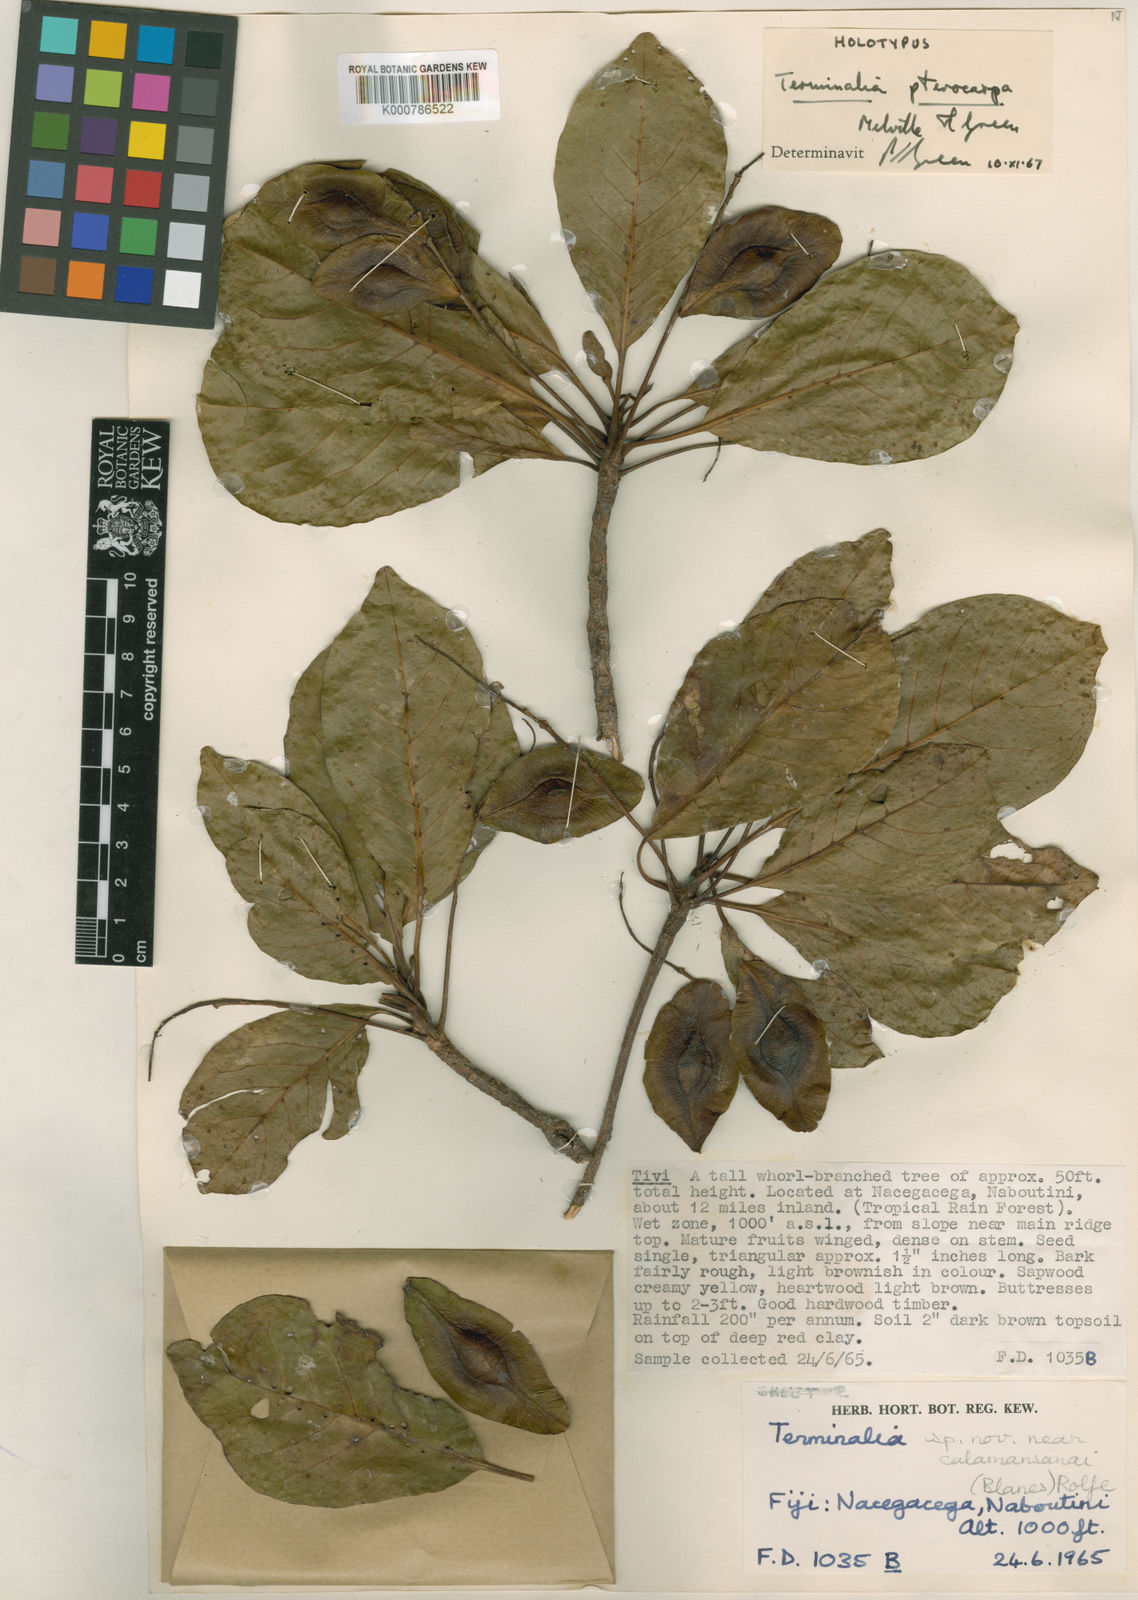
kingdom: Plantae
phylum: Tracheophyta
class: Magnoliopsida
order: Myrtales
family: Combretaceae
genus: Terminalia
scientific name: Terminalia pterocarpa
